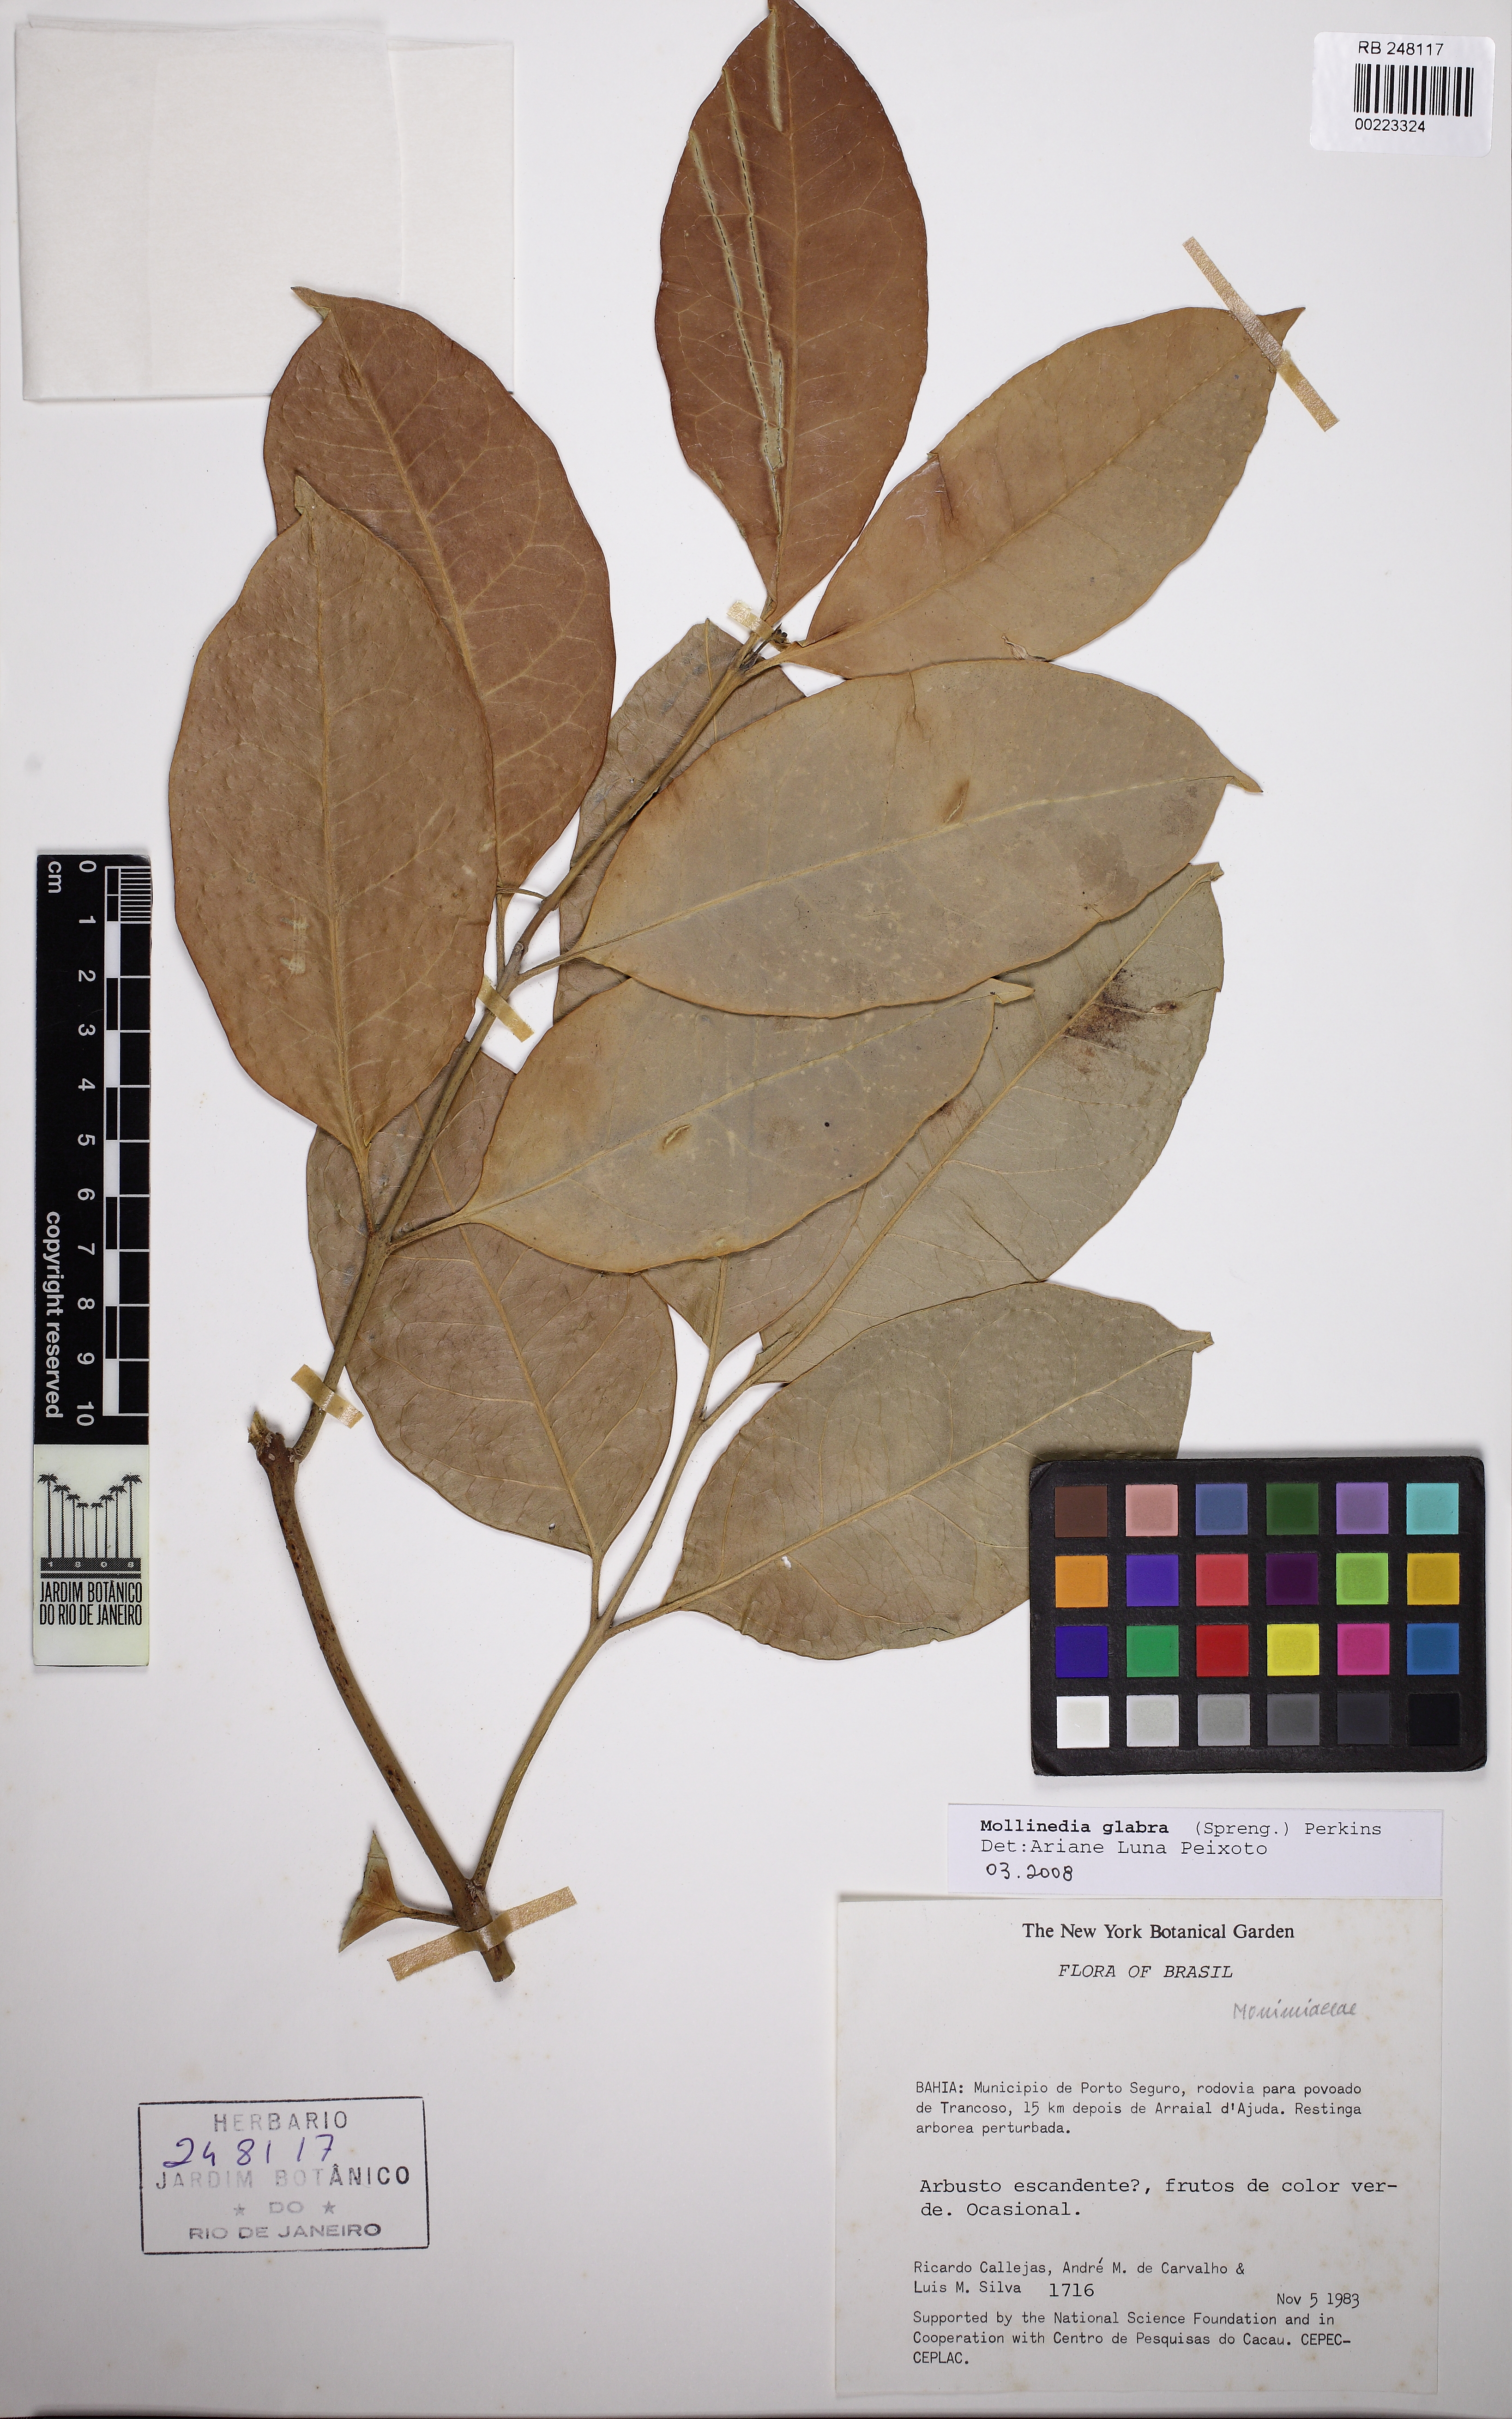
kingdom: Plantae
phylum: Tracheophyta
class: Magnoliopsida
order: Laurales
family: Monimiaceae
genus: Mollinedia
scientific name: Mollinedia glabra
